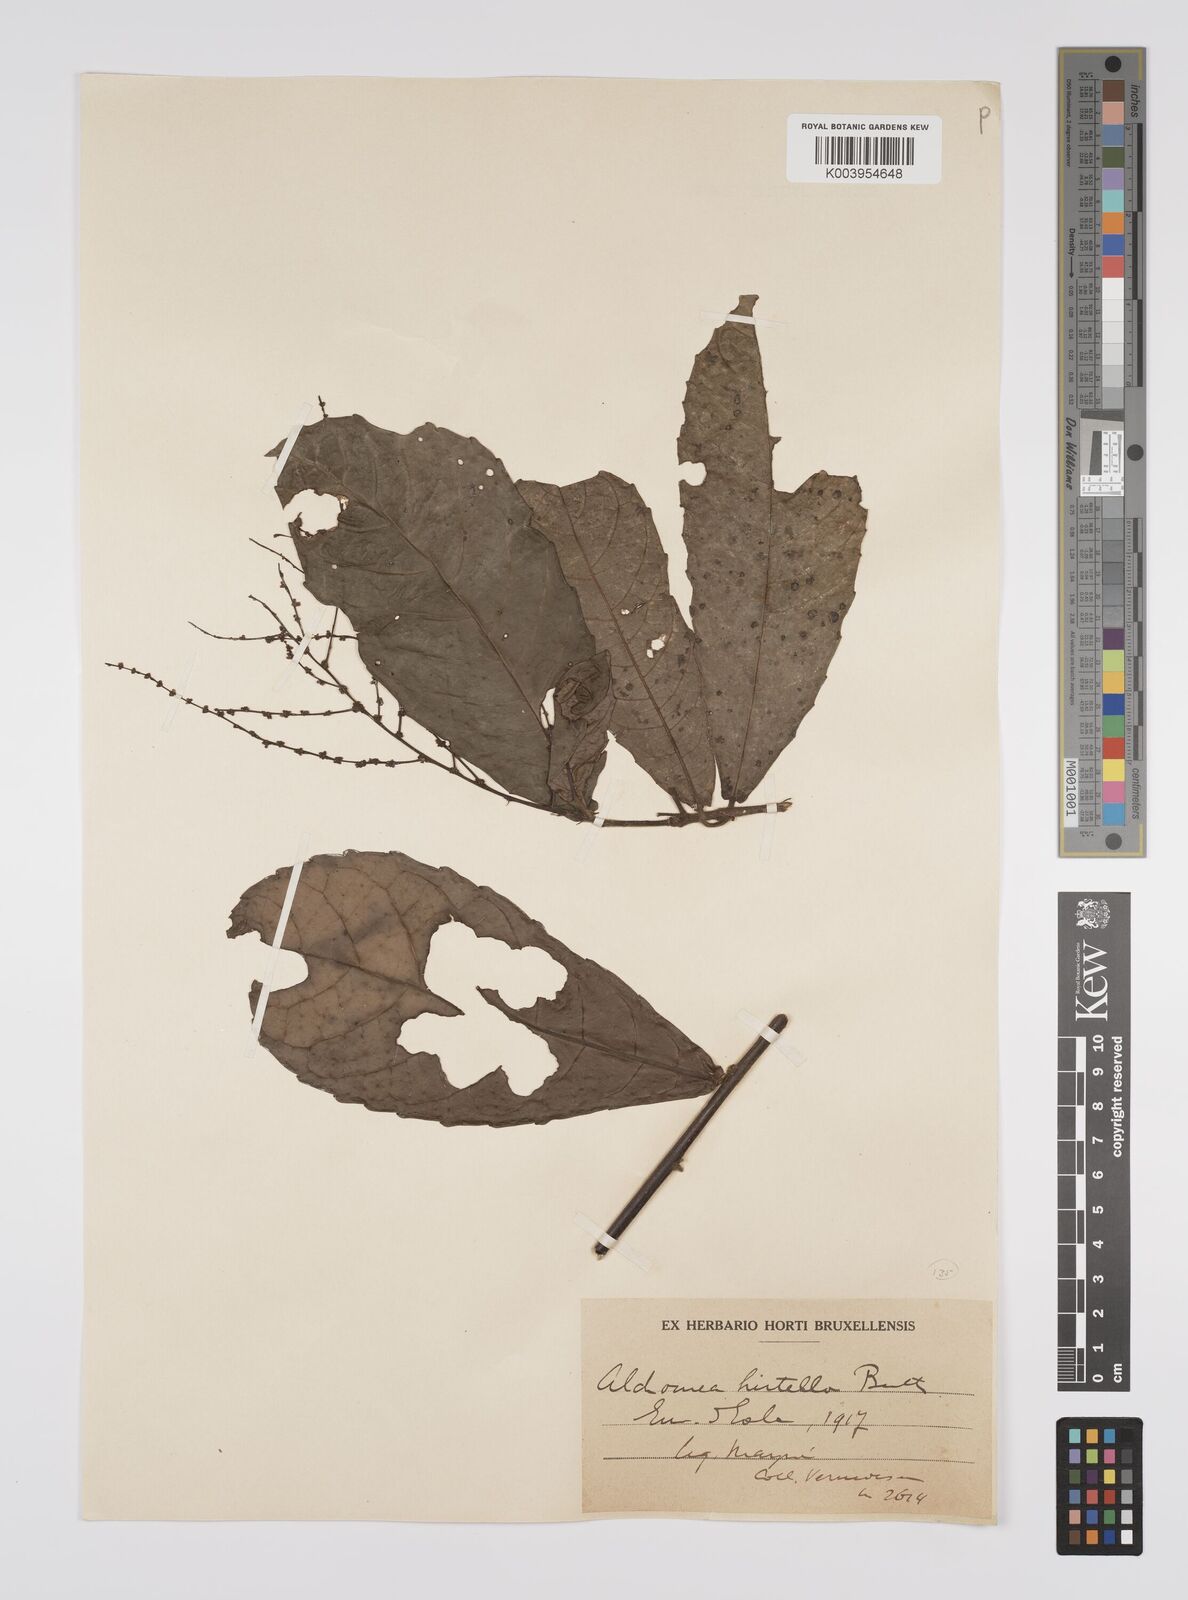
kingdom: Plantae
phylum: Tracheophyta
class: Magnoliopsida
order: Malpighiales
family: Euphorbiaceae
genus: Alchornea
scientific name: Alchornea hirtella
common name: Forest bead-string
